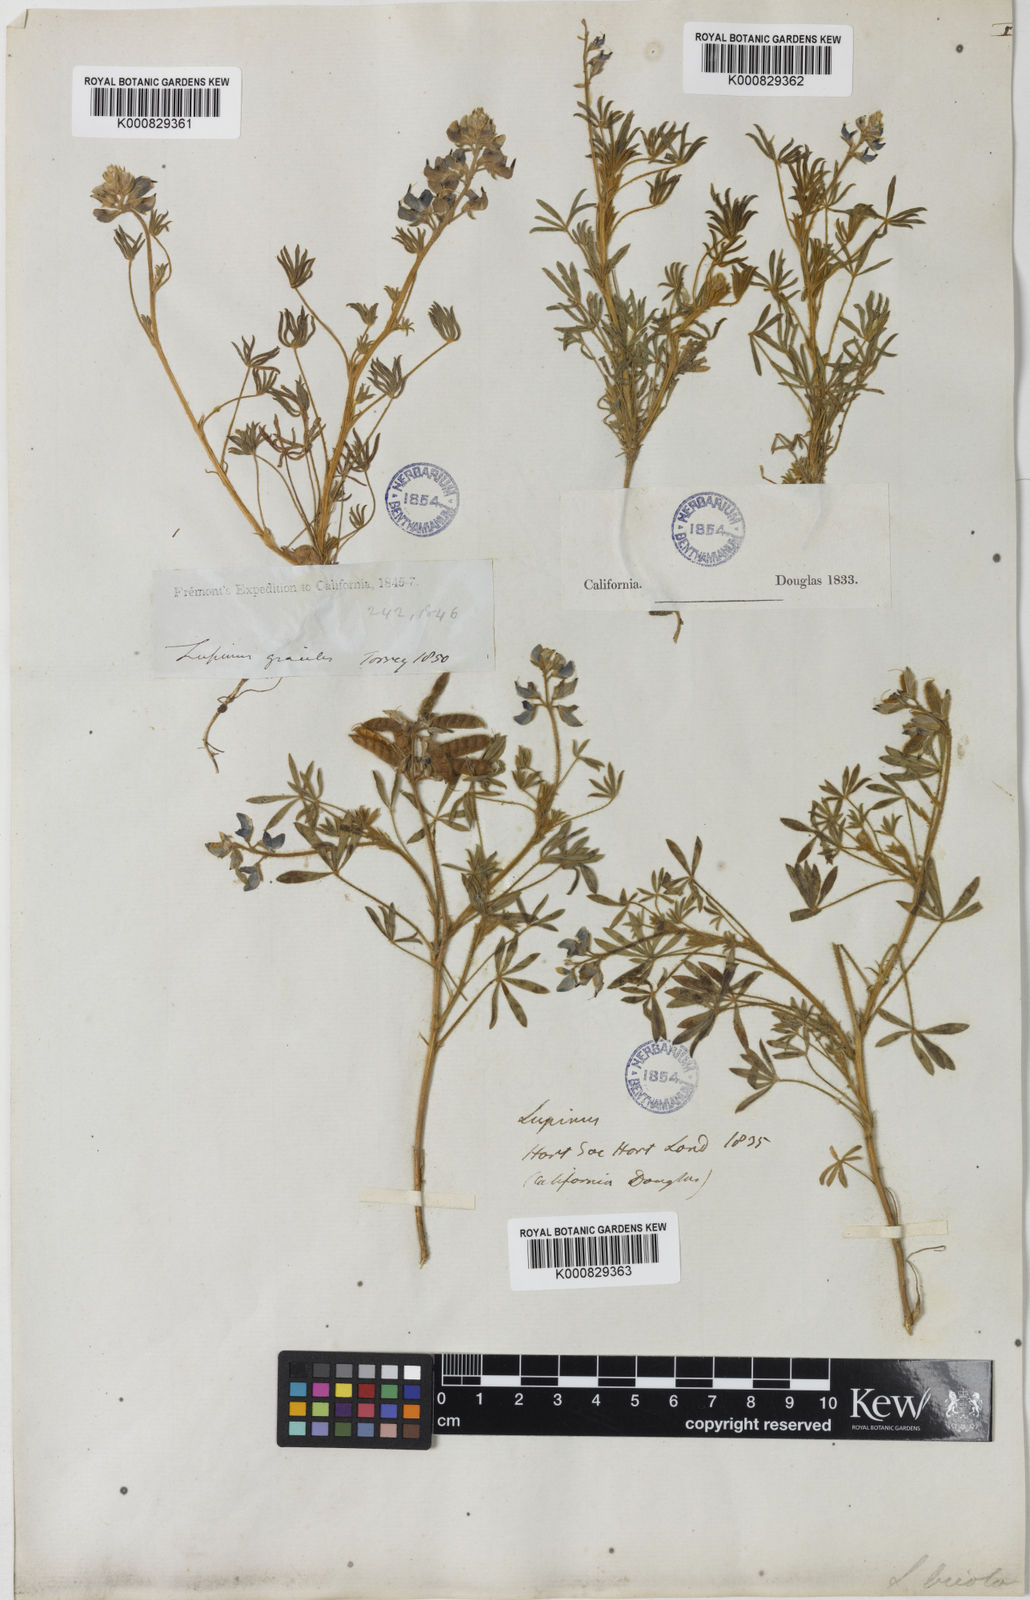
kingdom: Plantae
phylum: Tracheophyta
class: Magnoliopsida
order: Fabales
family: Fabaceae
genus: Lupinus
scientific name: Lupinus bicolor
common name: Miniature lupine
